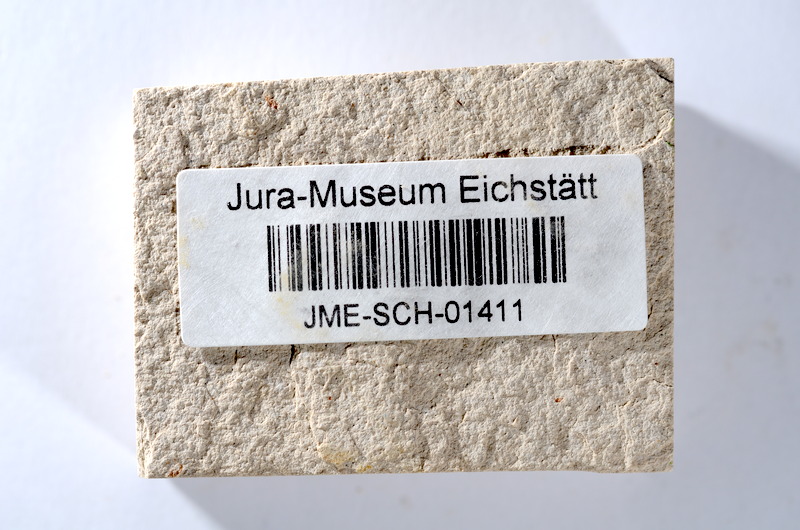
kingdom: Animalia
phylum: Chordata
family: Ascalaboidae
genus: Tharsis
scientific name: Tharsis dubius
